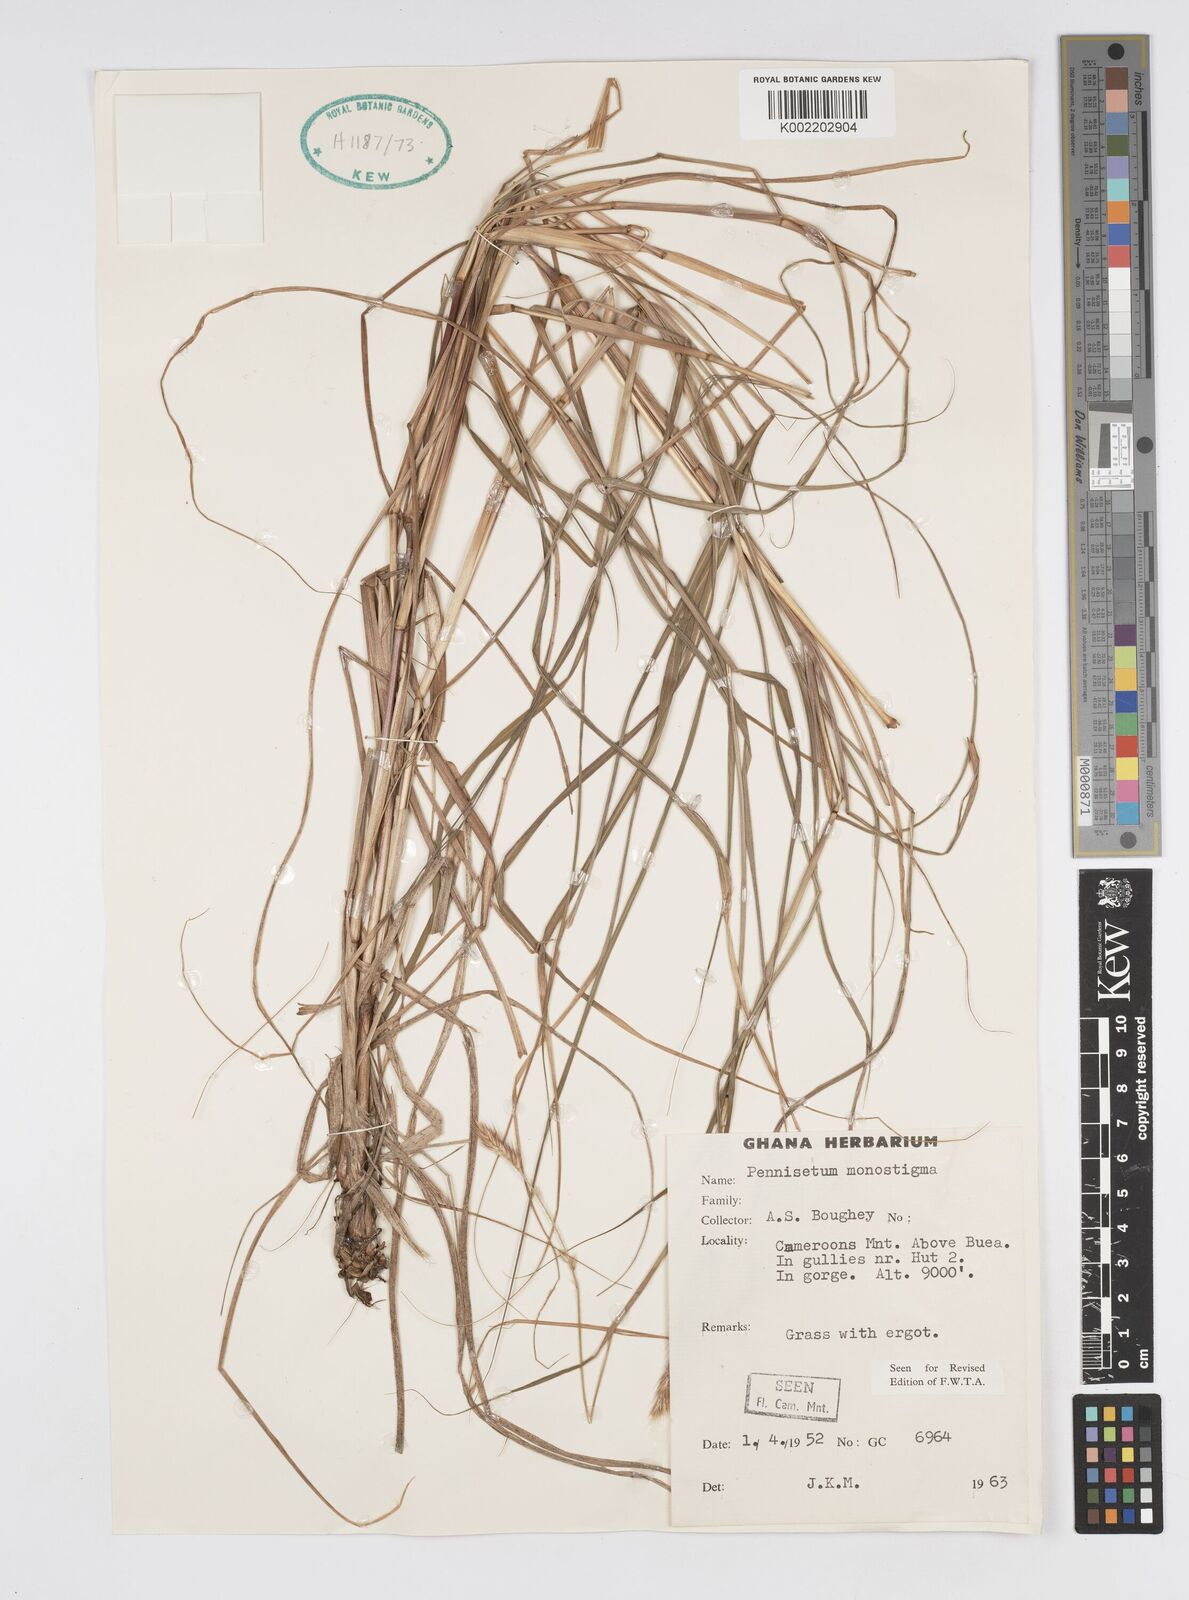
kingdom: Plantae
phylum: Tracheophyta
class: Liliopsida
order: Poales
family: Poaceae
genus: Cenchrus
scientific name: Cenchrus monostigma
